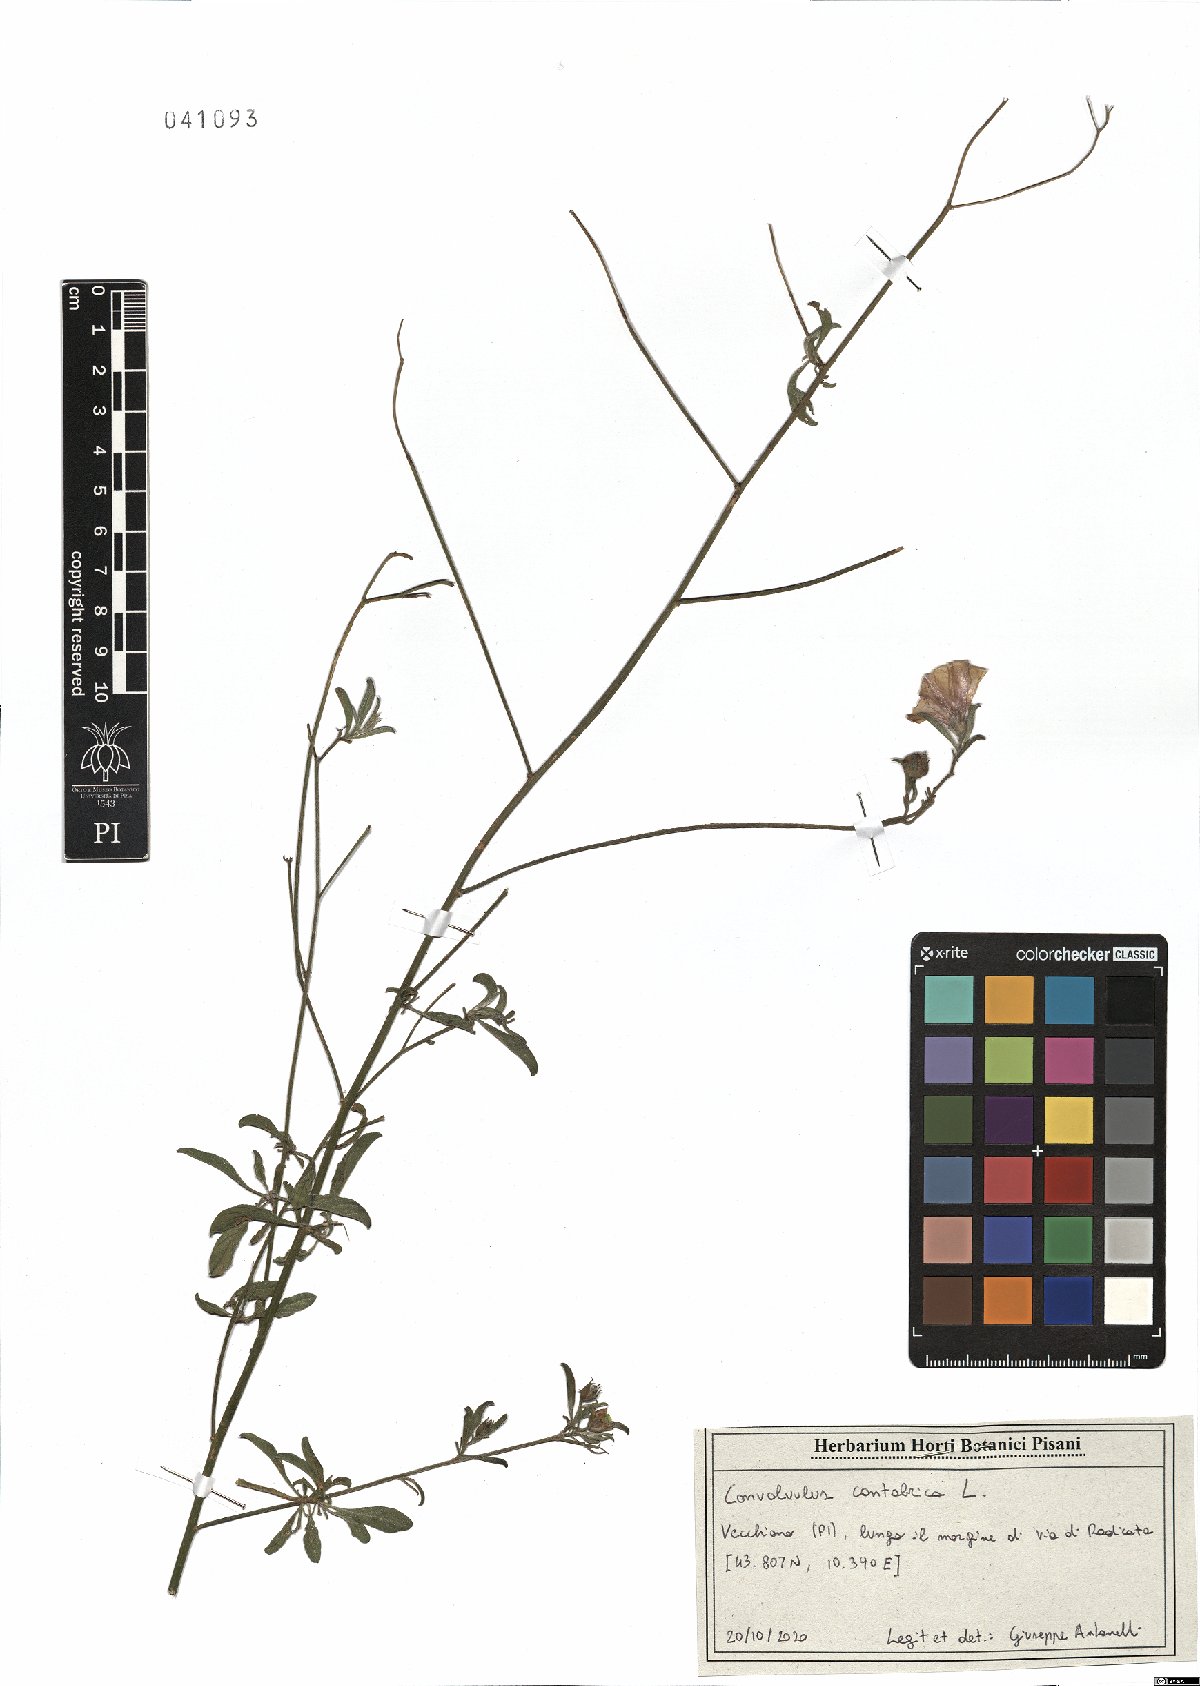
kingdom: Plantae
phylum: Tracheophyta
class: Magnoliopsida
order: Solanales
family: Convolvulaceae
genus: Convolvulus
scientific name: Convolvulus cantabrica
